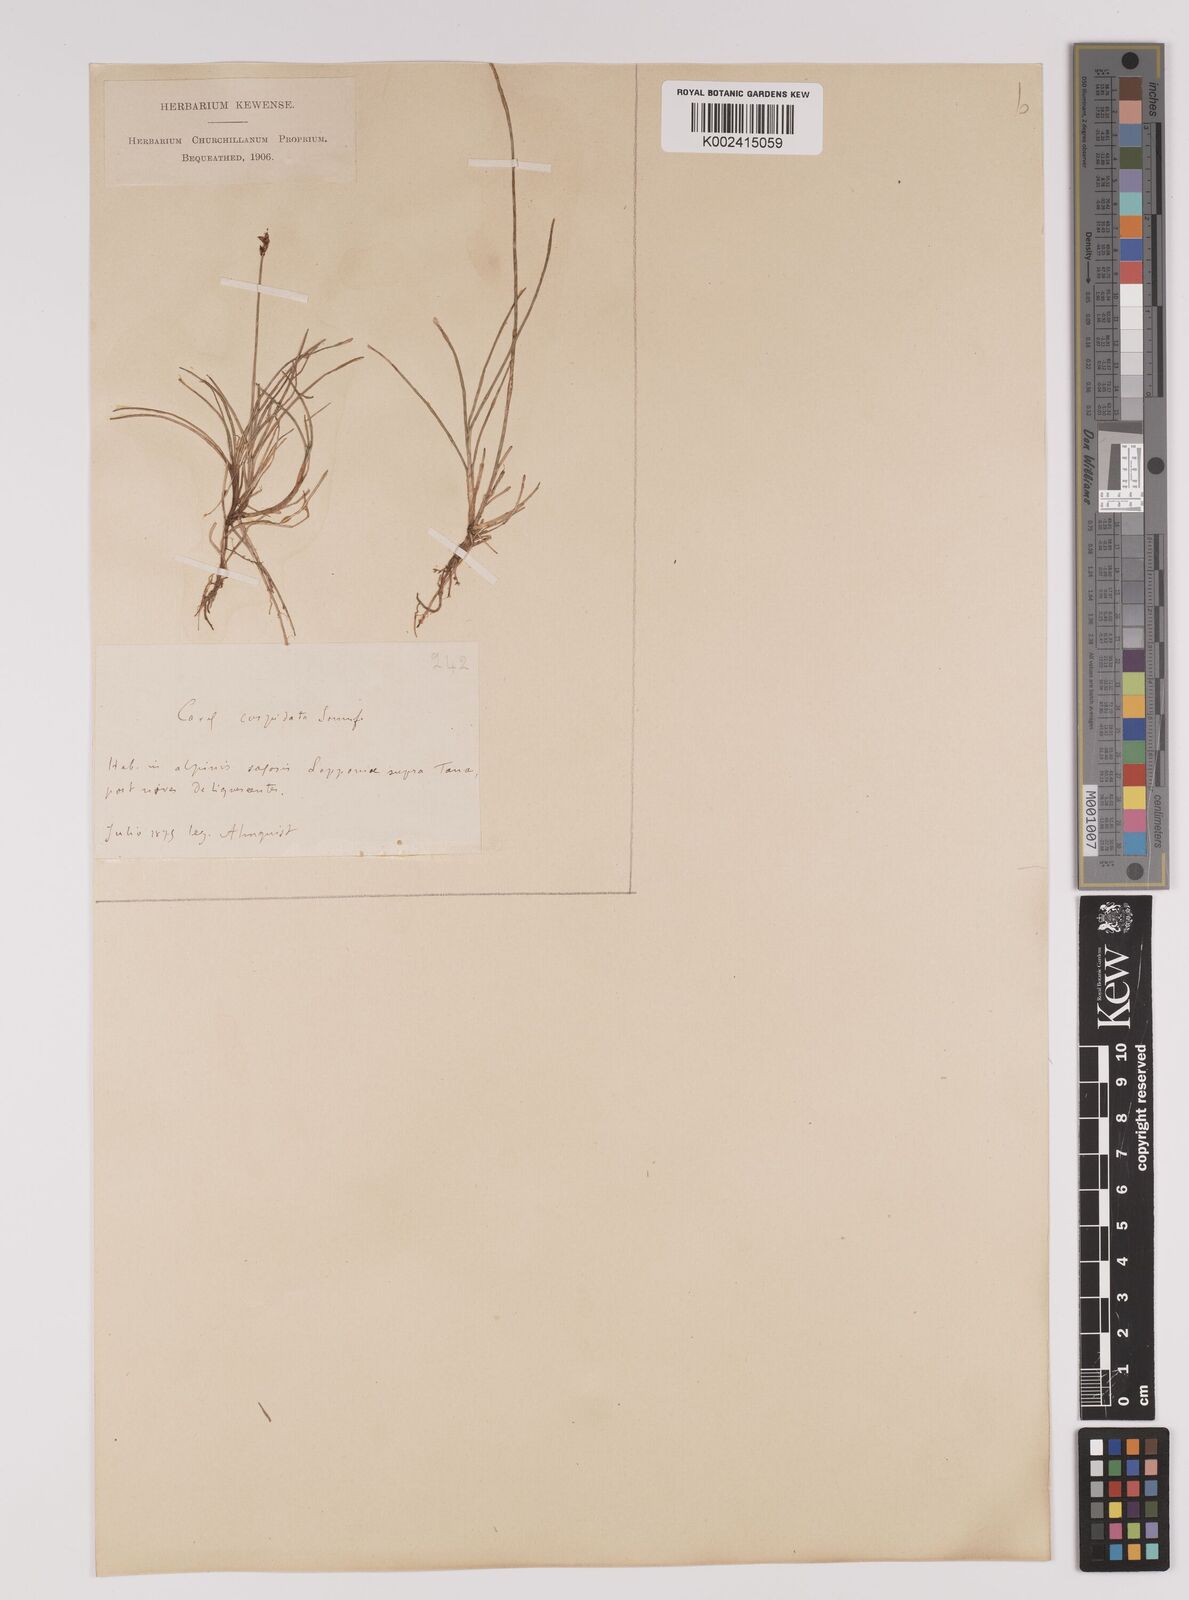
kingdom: Plantae
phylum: Tracheophyta
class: Liliopsida
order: Poales
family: Cyperaceae
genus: Carex
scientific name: Carex dioica
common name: Dioecious sedge
